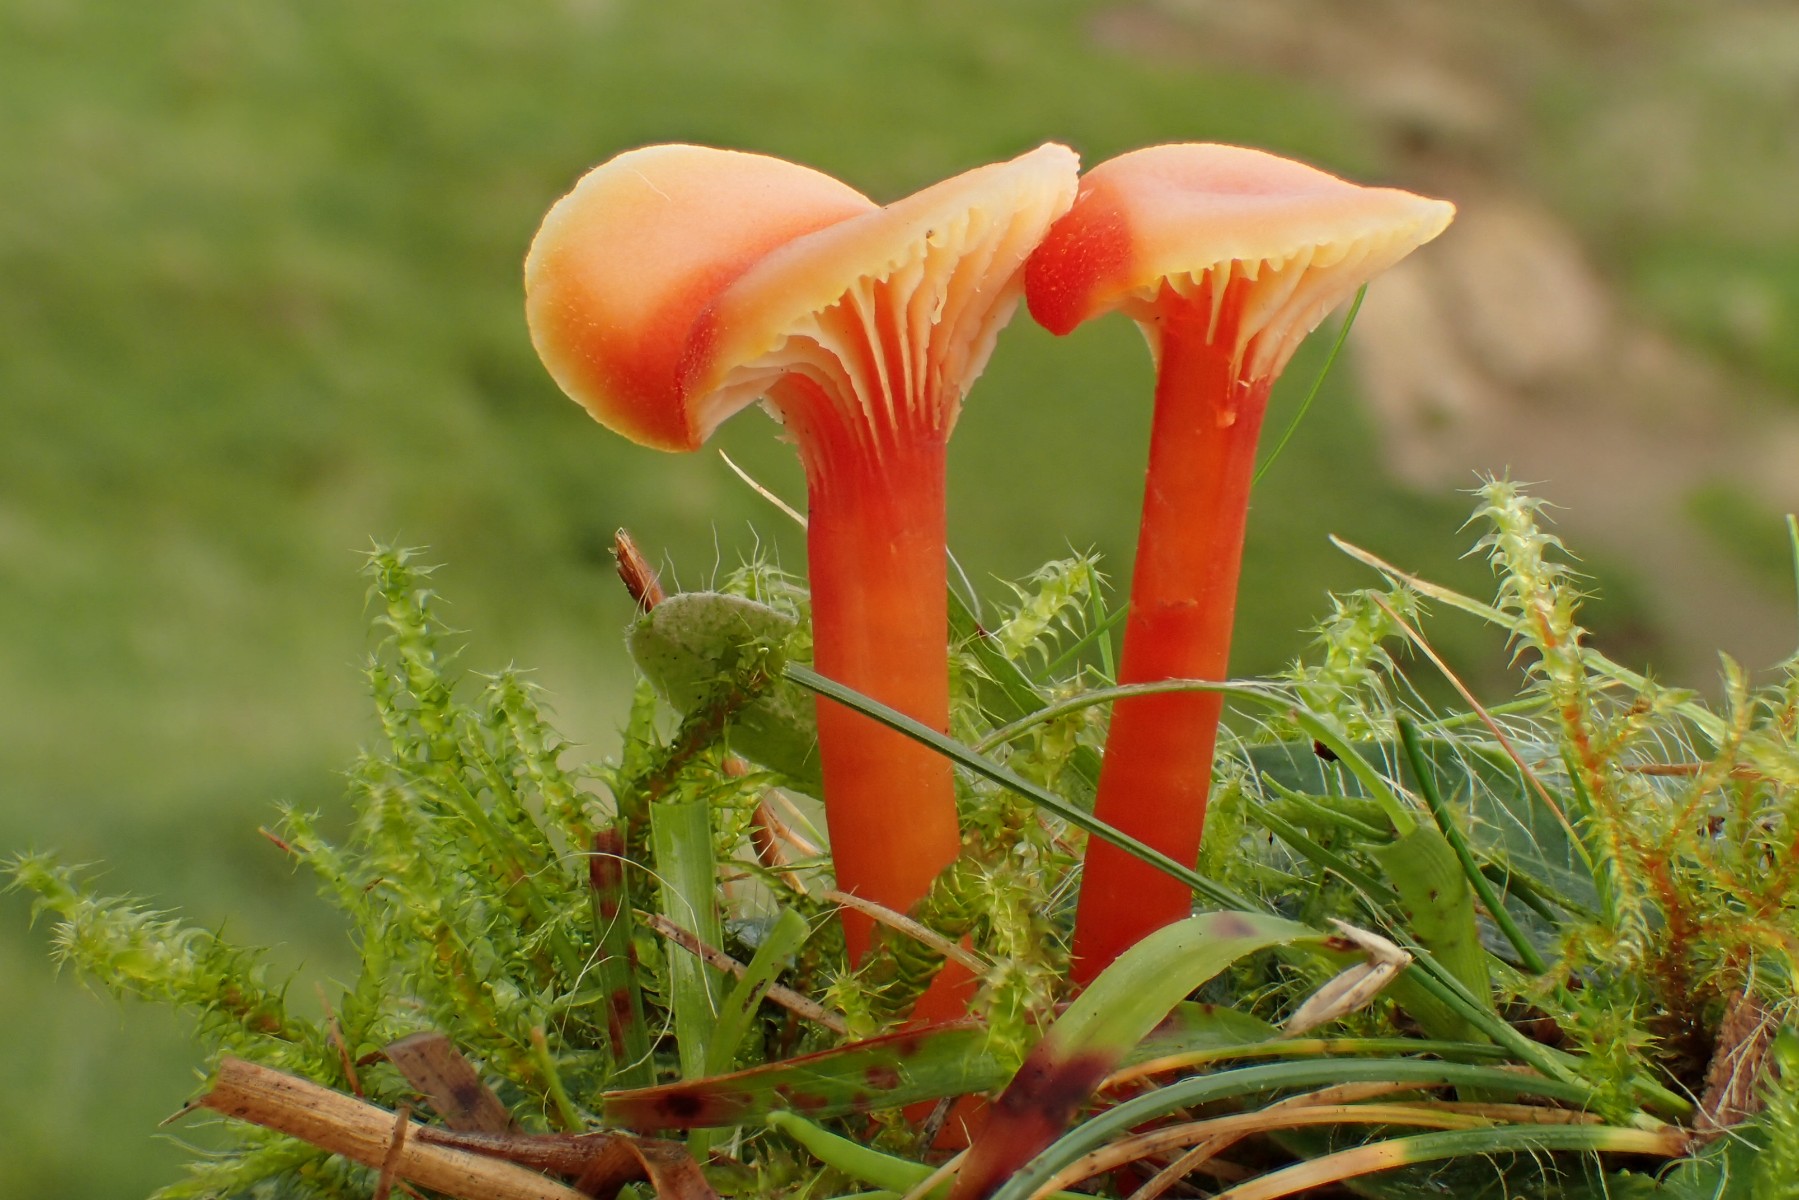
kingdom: Fungi
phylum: Basidiomycota
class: Agaricomycetes
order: Agaricales
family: Hygrophoraceae
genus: Hygrocybe
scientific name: Hygrocybe cantharellus
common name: kantarel-vokshat
